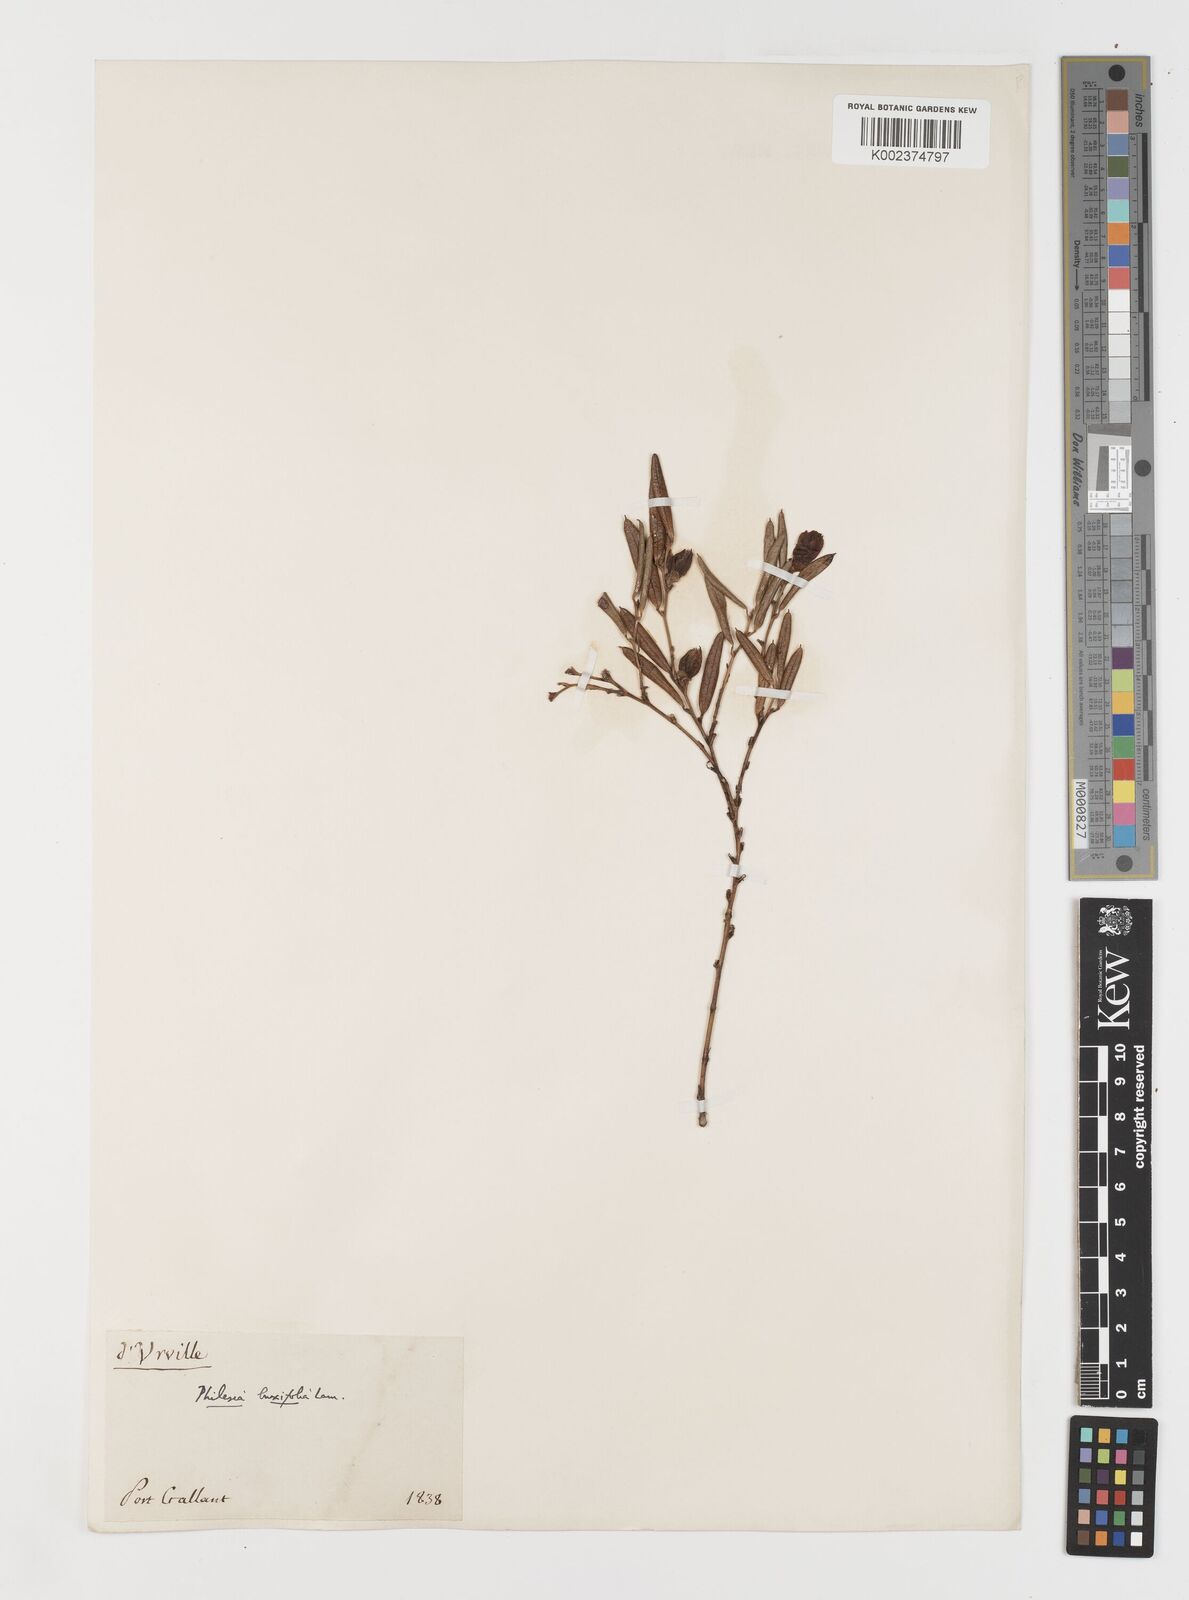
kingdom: Plantae
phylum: Tracheophyta
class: Liliopsida
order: Liliales
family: Philesiaceae
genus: Philesia
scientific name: Philesia magellanica
